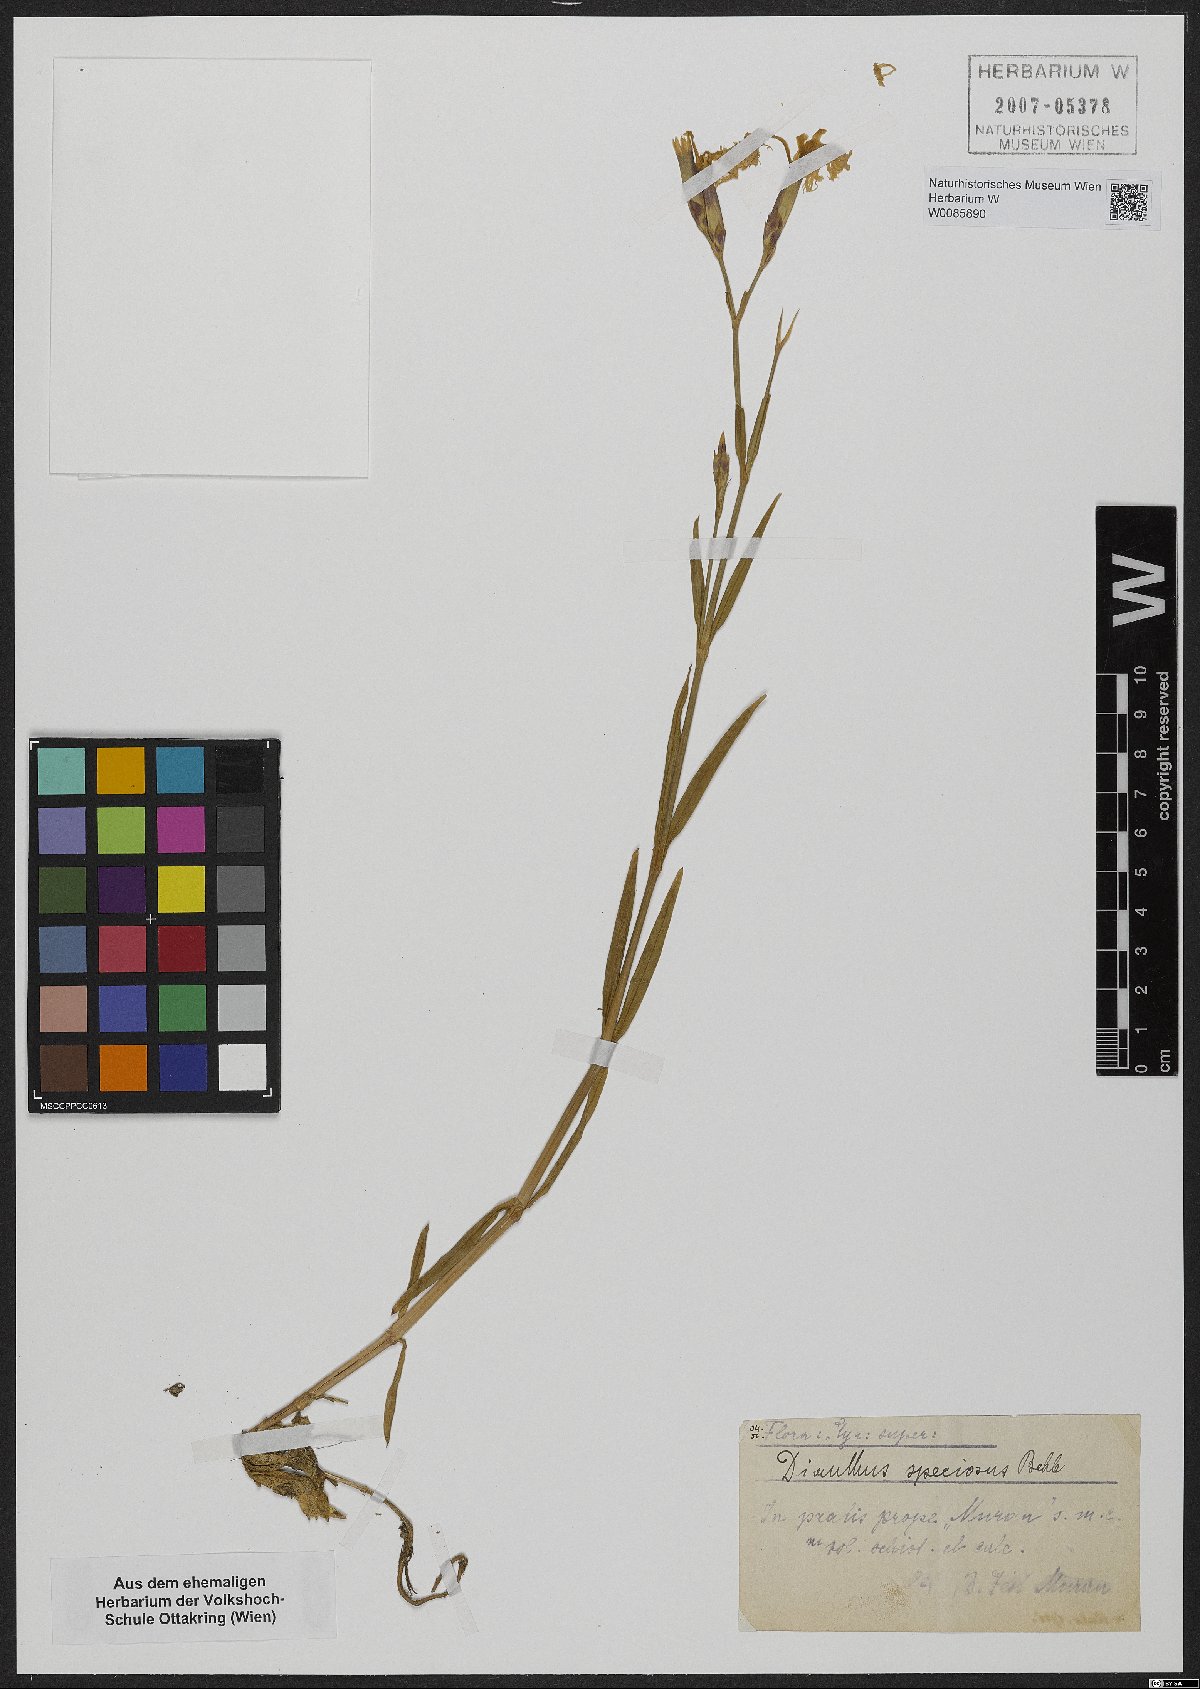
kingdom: Plantae
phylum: Tracheophyta
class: Magnoliopsida
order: Caryophyllales
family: Caryophyllaceae
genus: Dianthus
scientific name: Dianthus superbus
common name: Fringed pink
